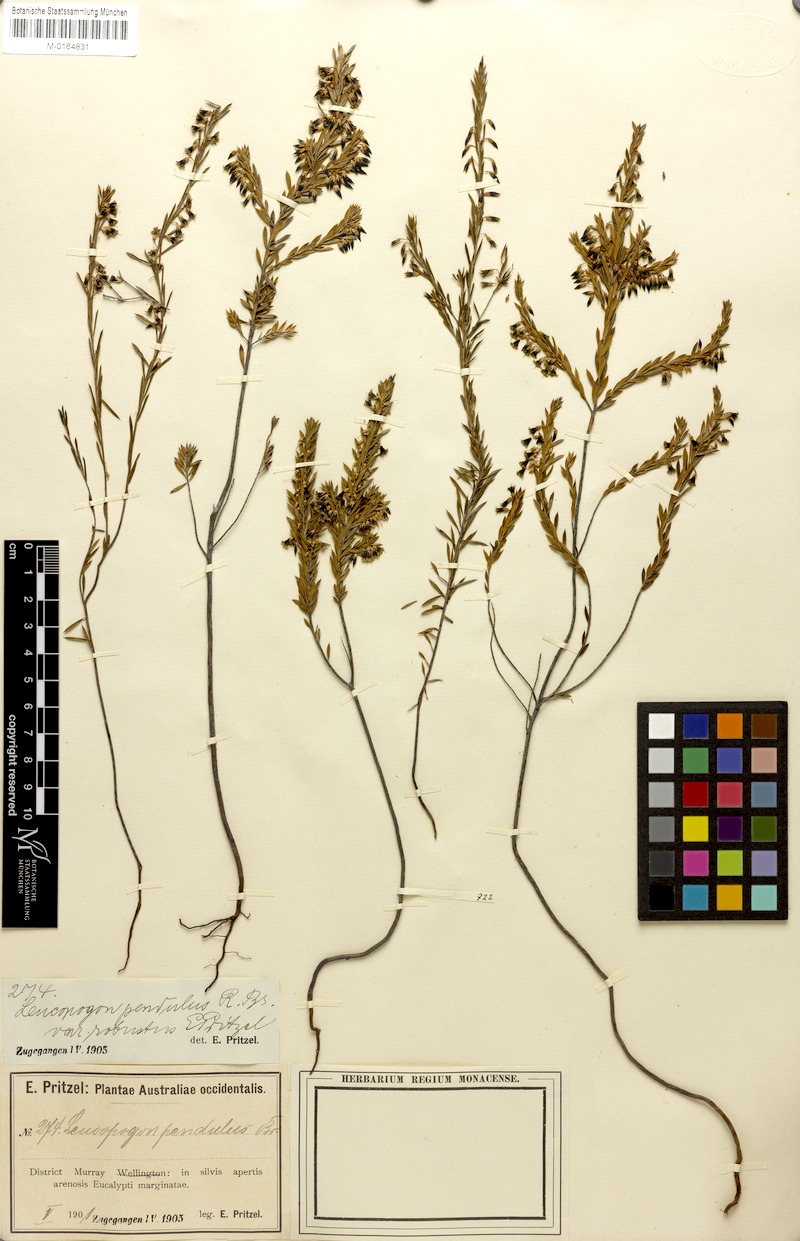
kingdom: Plantae
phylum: Tracheophyta
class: Magnoliopsida
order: Ericales
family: Ericaceae
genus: Styphelia
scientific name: Styphelia pendula
